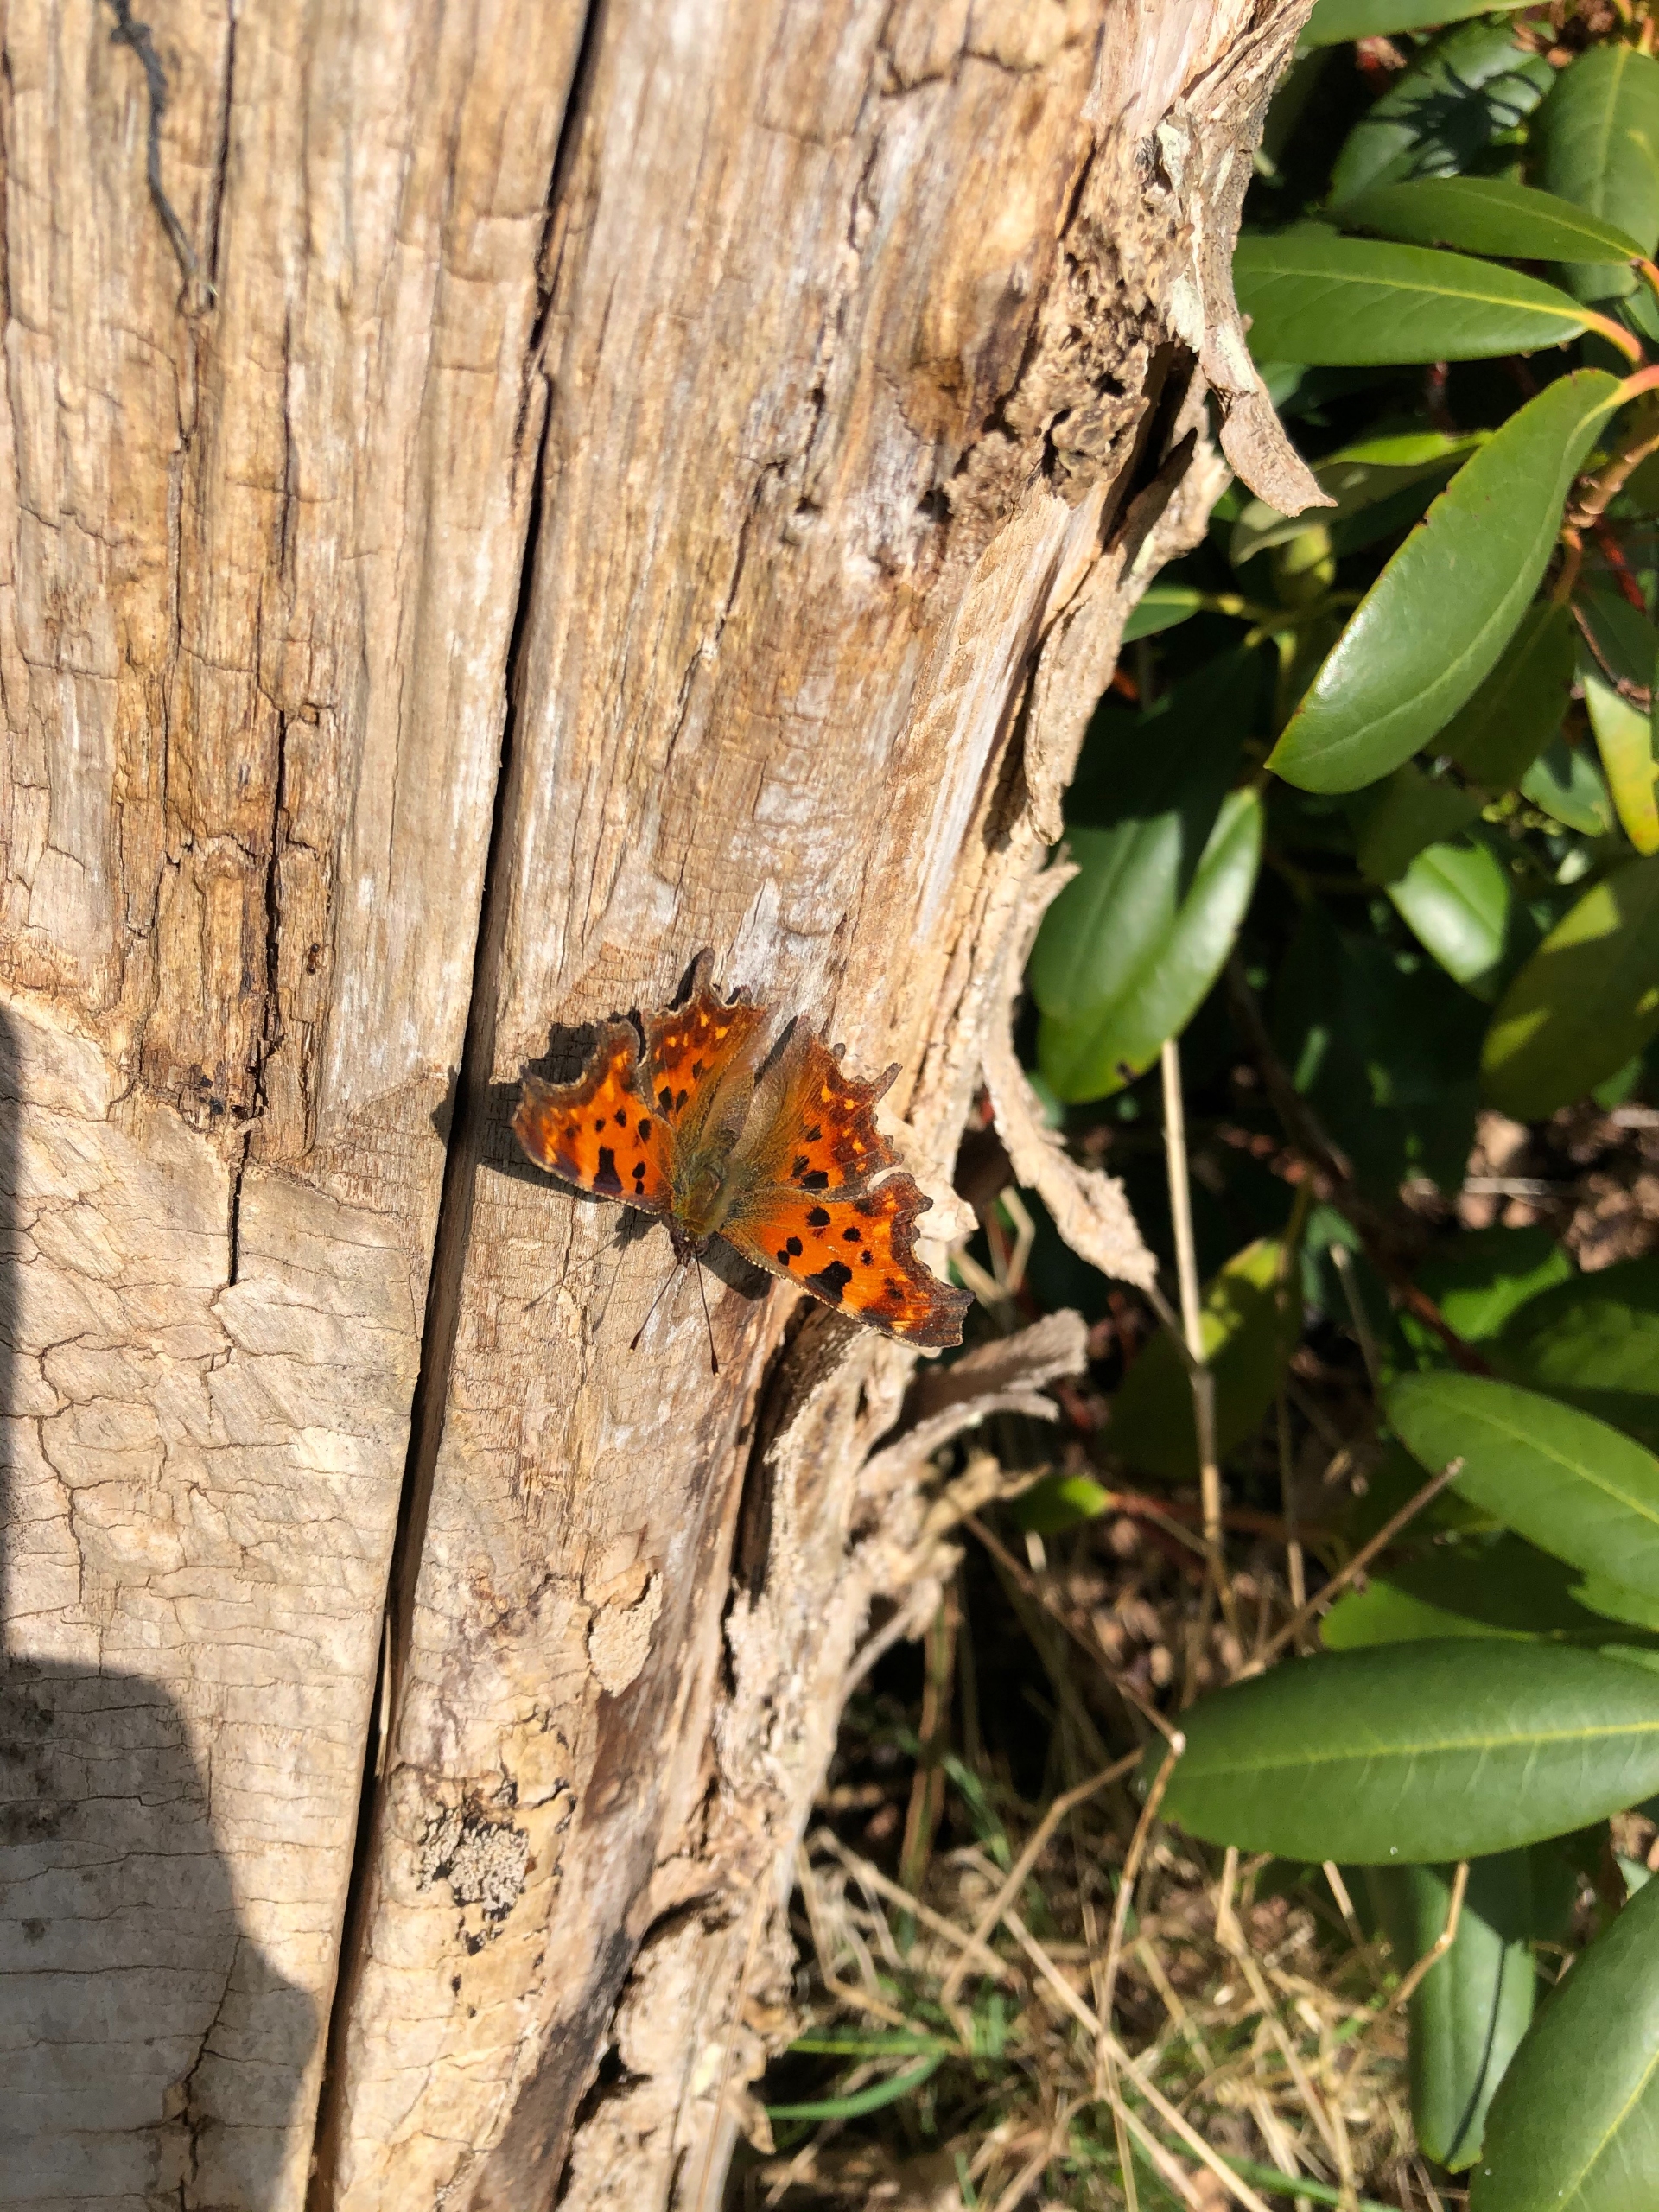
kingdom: Animalia
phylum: Arthropoda
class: Insecta
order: Lepidoptera
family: Nymphalidae
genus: Polygonia
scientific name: Polygonia c-album
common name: Det hvide C
